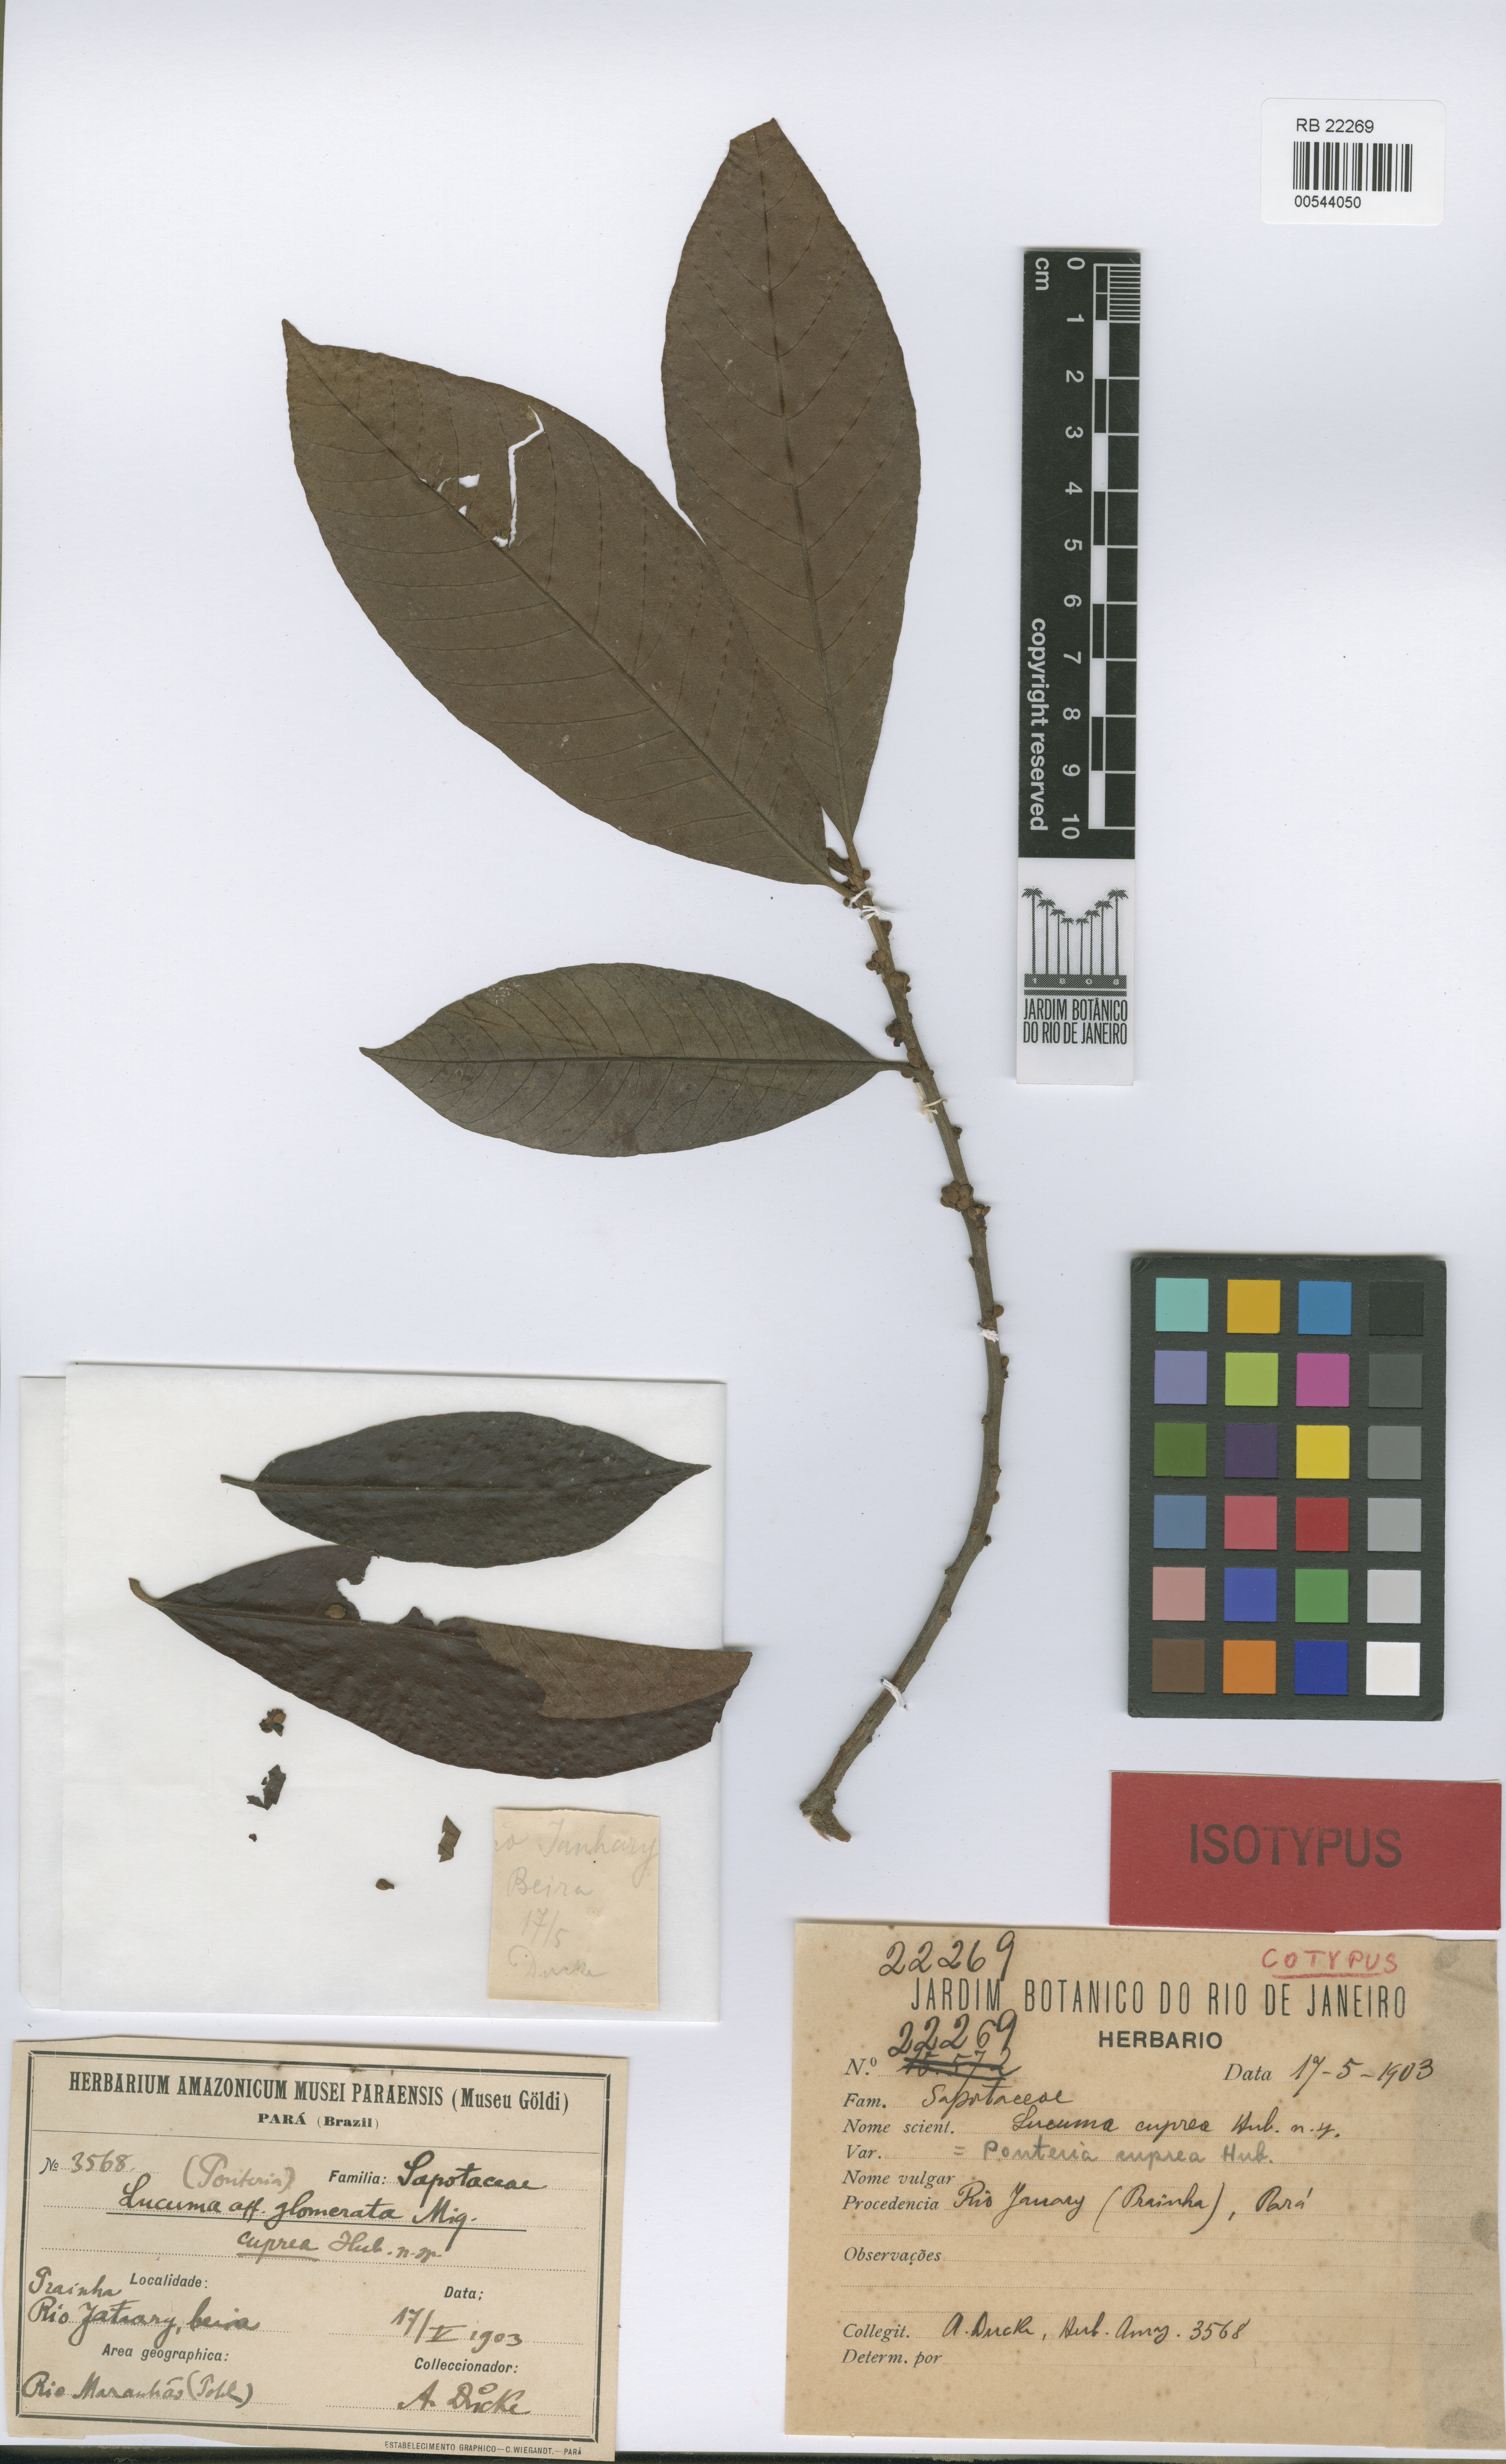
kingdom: Plantae
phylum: Tracheophyta
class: Magnoliopsida
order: Ericales
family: Sapotaceae
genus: Pouteria
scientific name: Pouteria glomerata
